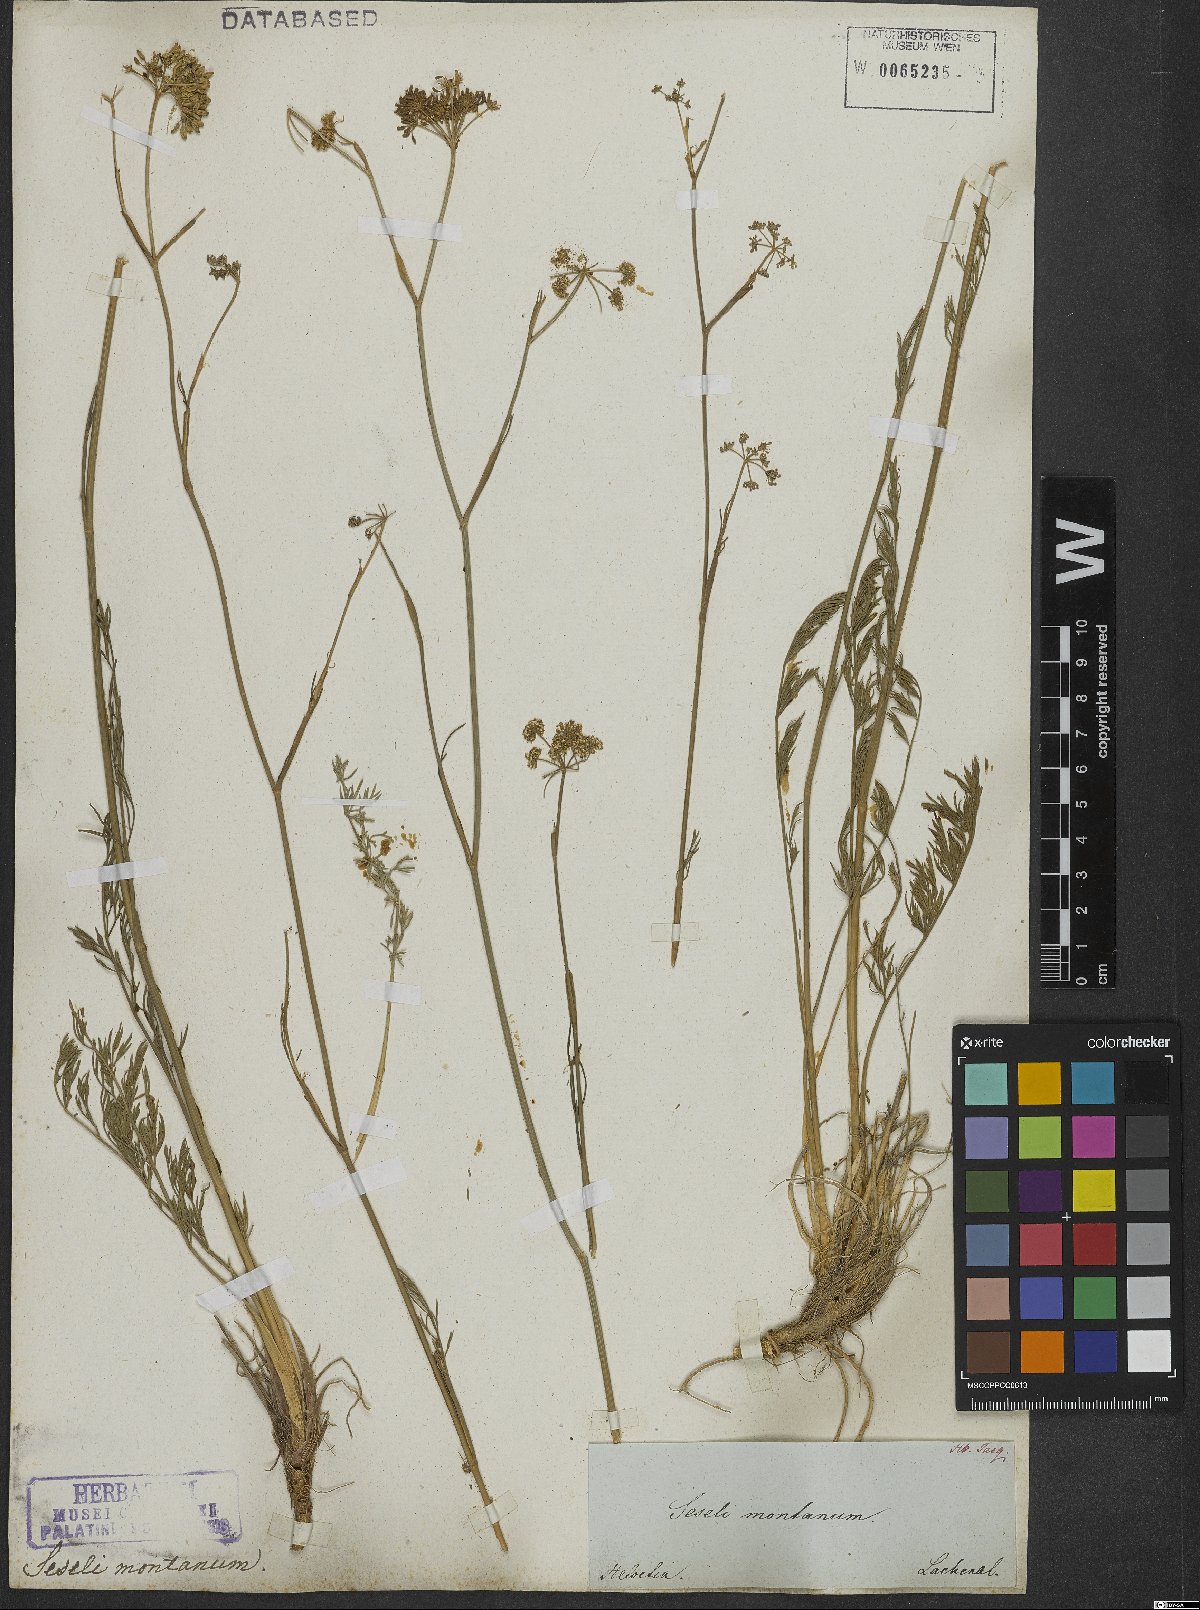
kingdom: Plantae
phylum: Tracheophyta
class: Magnoliopsida
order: Apiales
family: Apiaceae
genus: Seseli
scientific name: Seseli montanum
